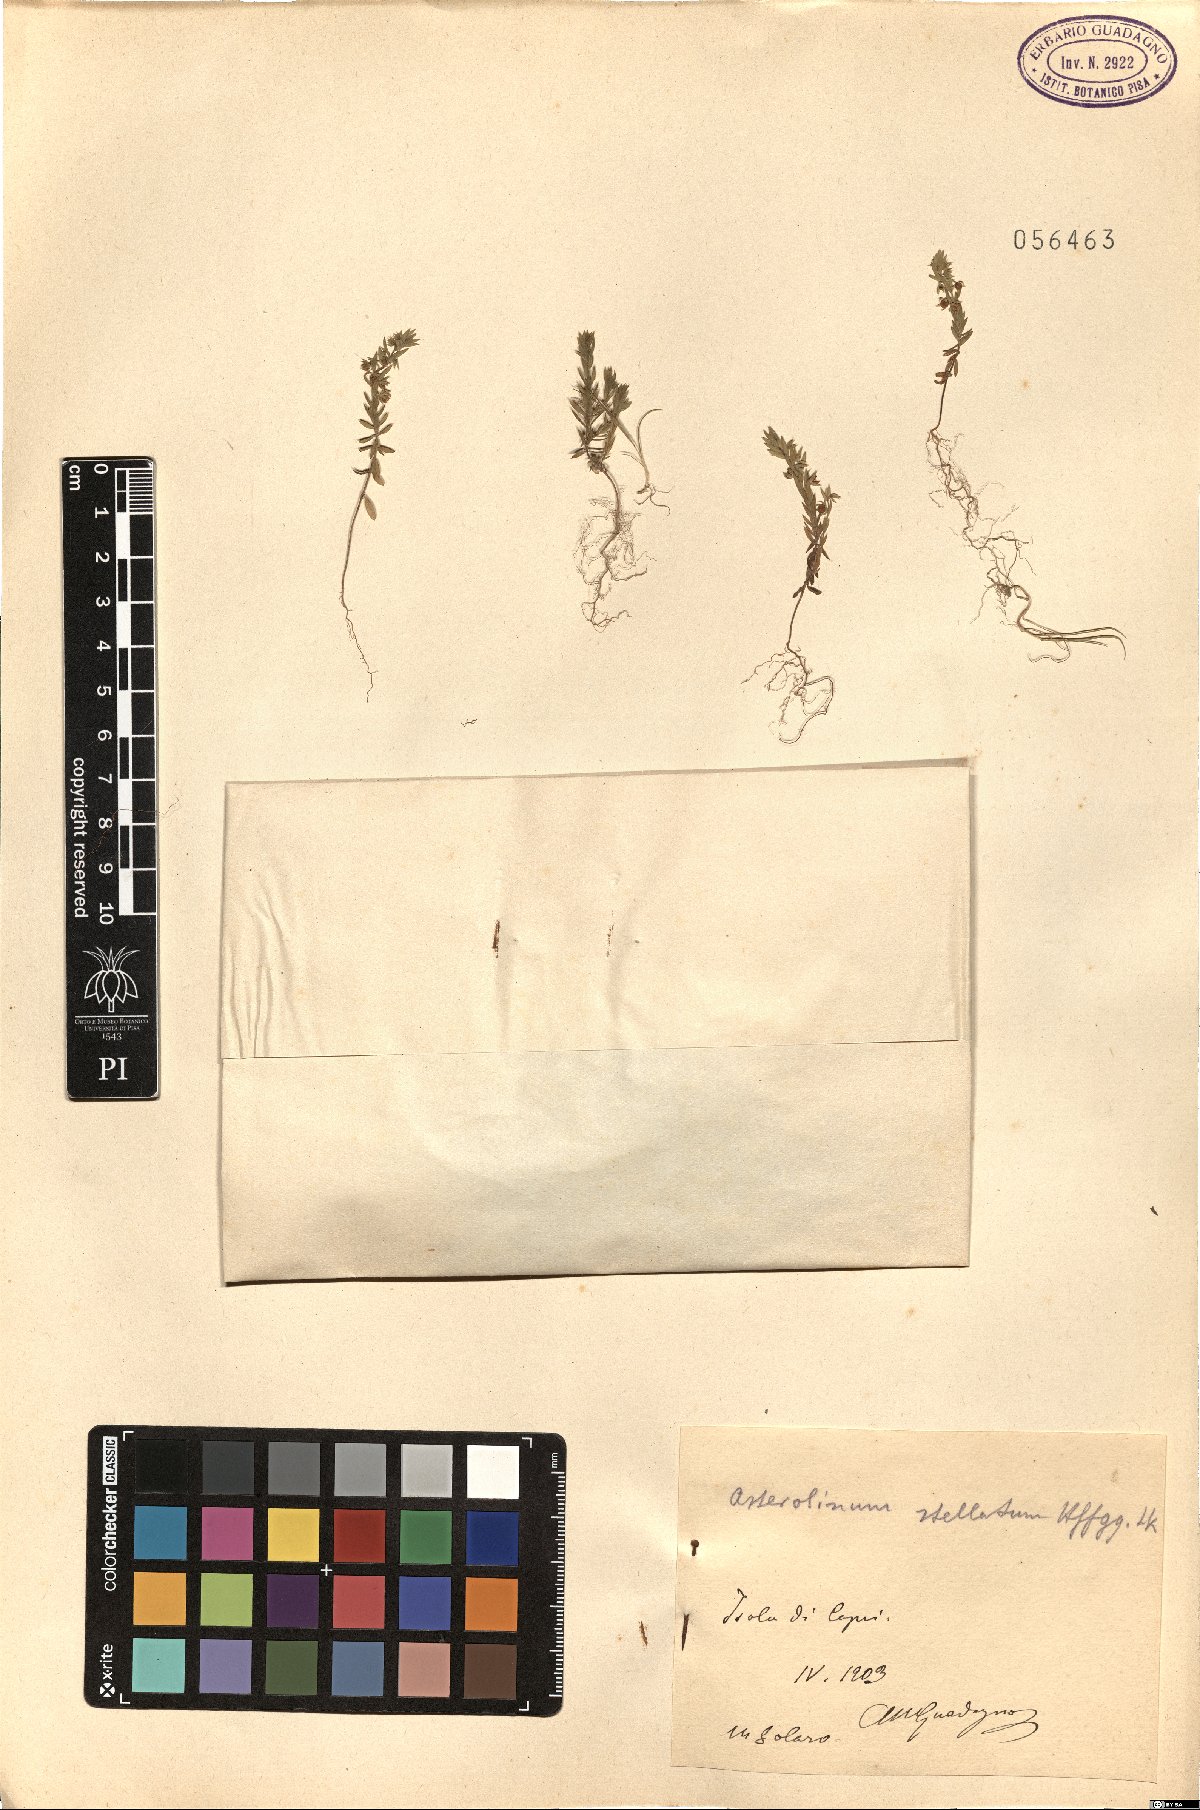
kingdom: Plantae
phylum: Tracheophyta
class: Magnoliopsida
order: Ericales
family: Primulaceae
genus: Lysimachia
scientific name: Lysimachia linum-stellatum
